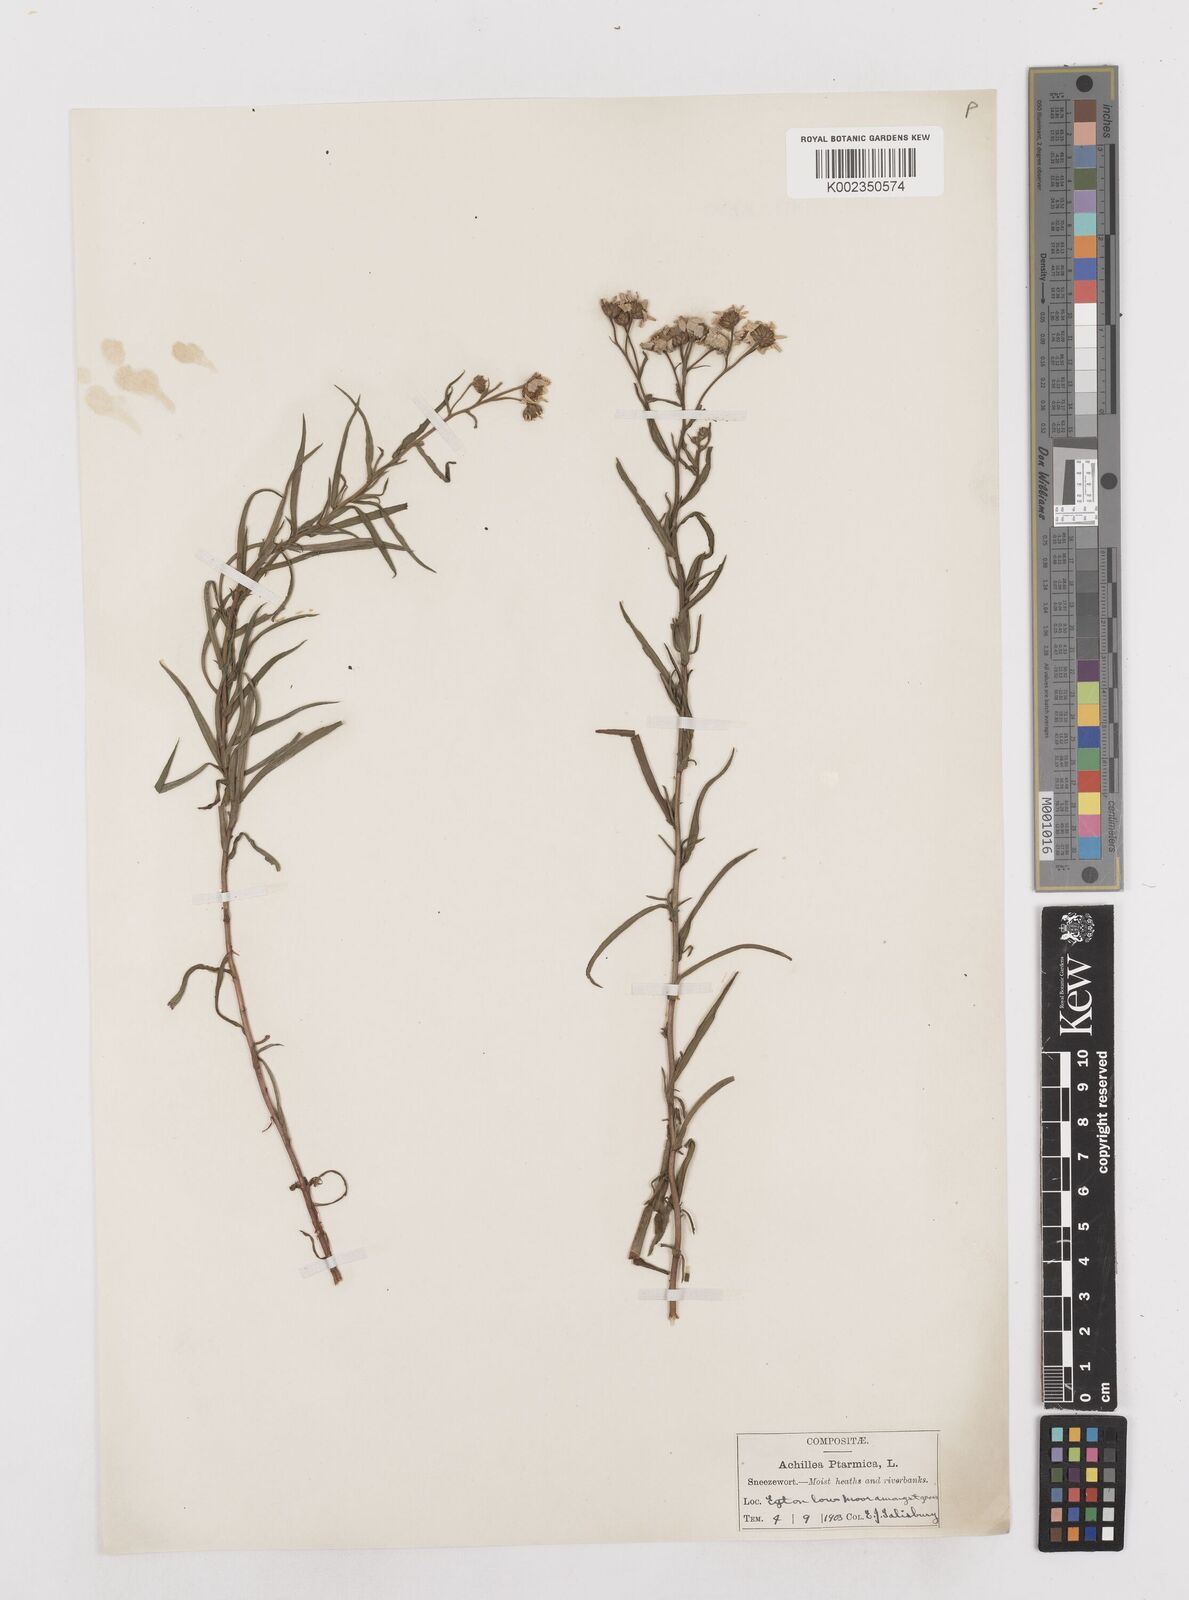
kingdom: Plantae
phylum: Tracheophyta
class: Magnoliopsida
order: Asterales
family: Asteraceae
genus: Achillea
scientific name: Achillea ptarmica
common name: Sneezeweed
